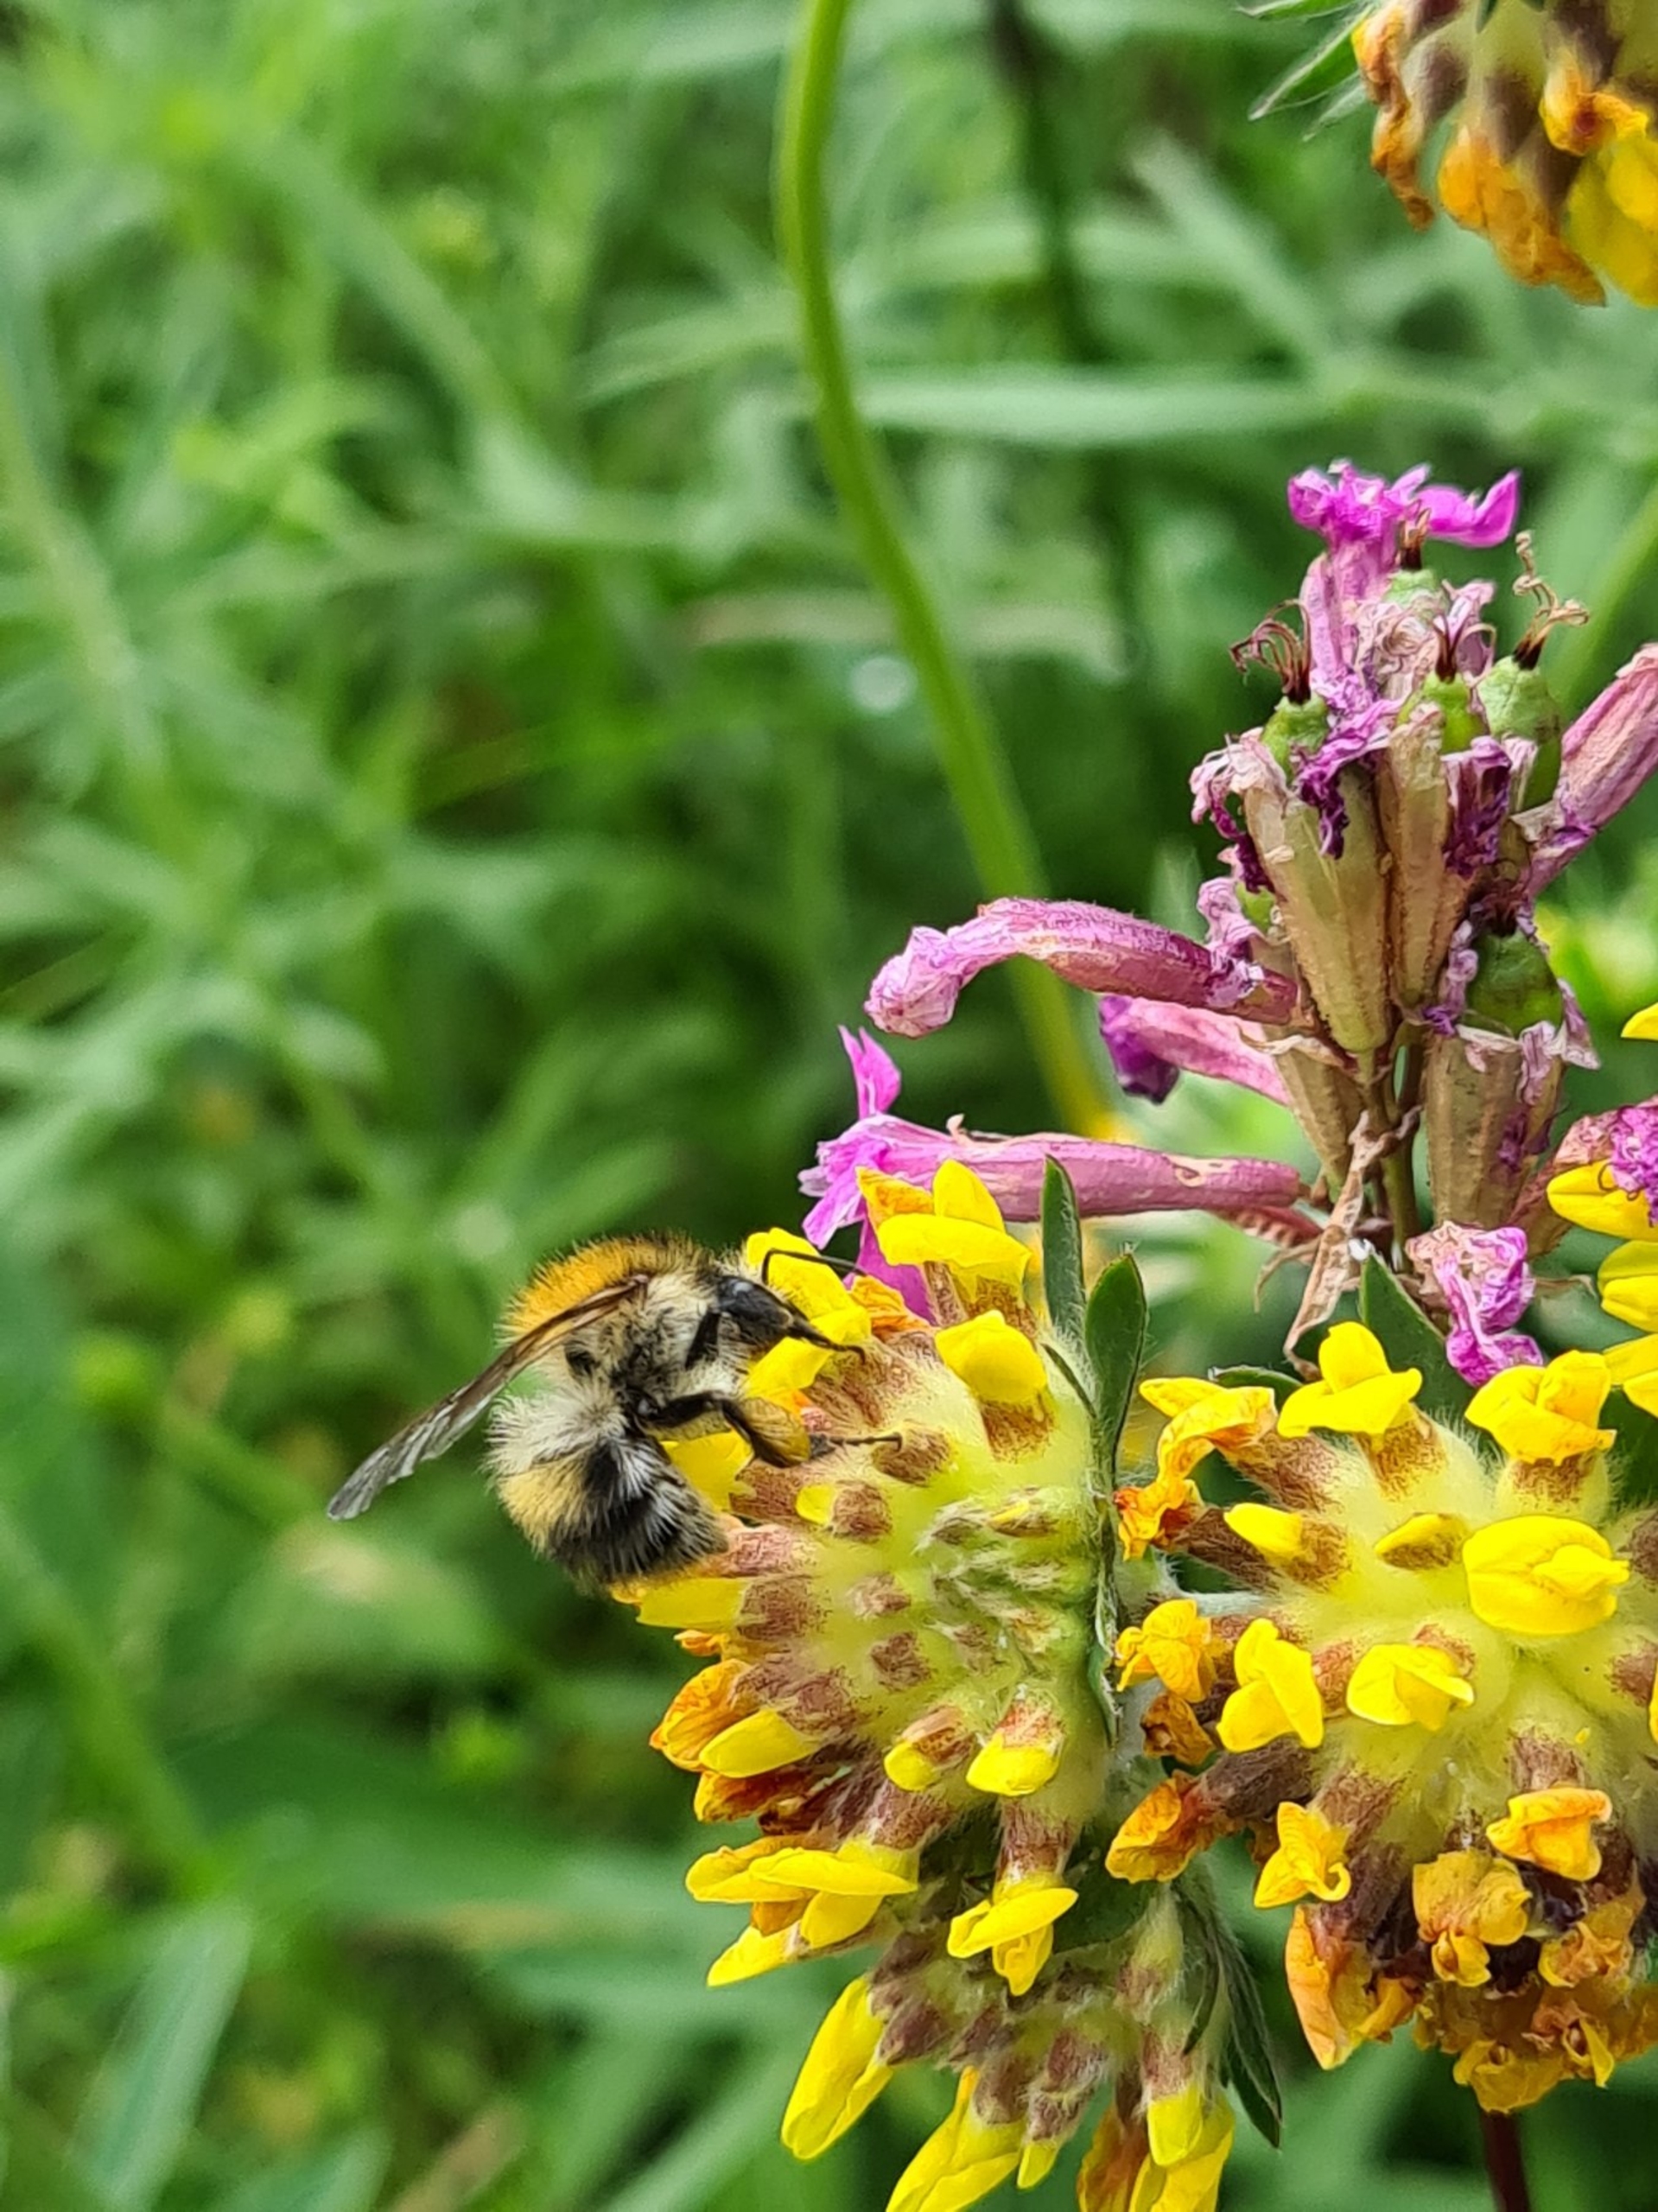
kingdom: Animalia
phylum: Arthropoda
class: Insecta
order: Hymenoptera
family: Apidae
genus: Bombus
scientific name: Bombus pascuorum
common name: Agerhumle
